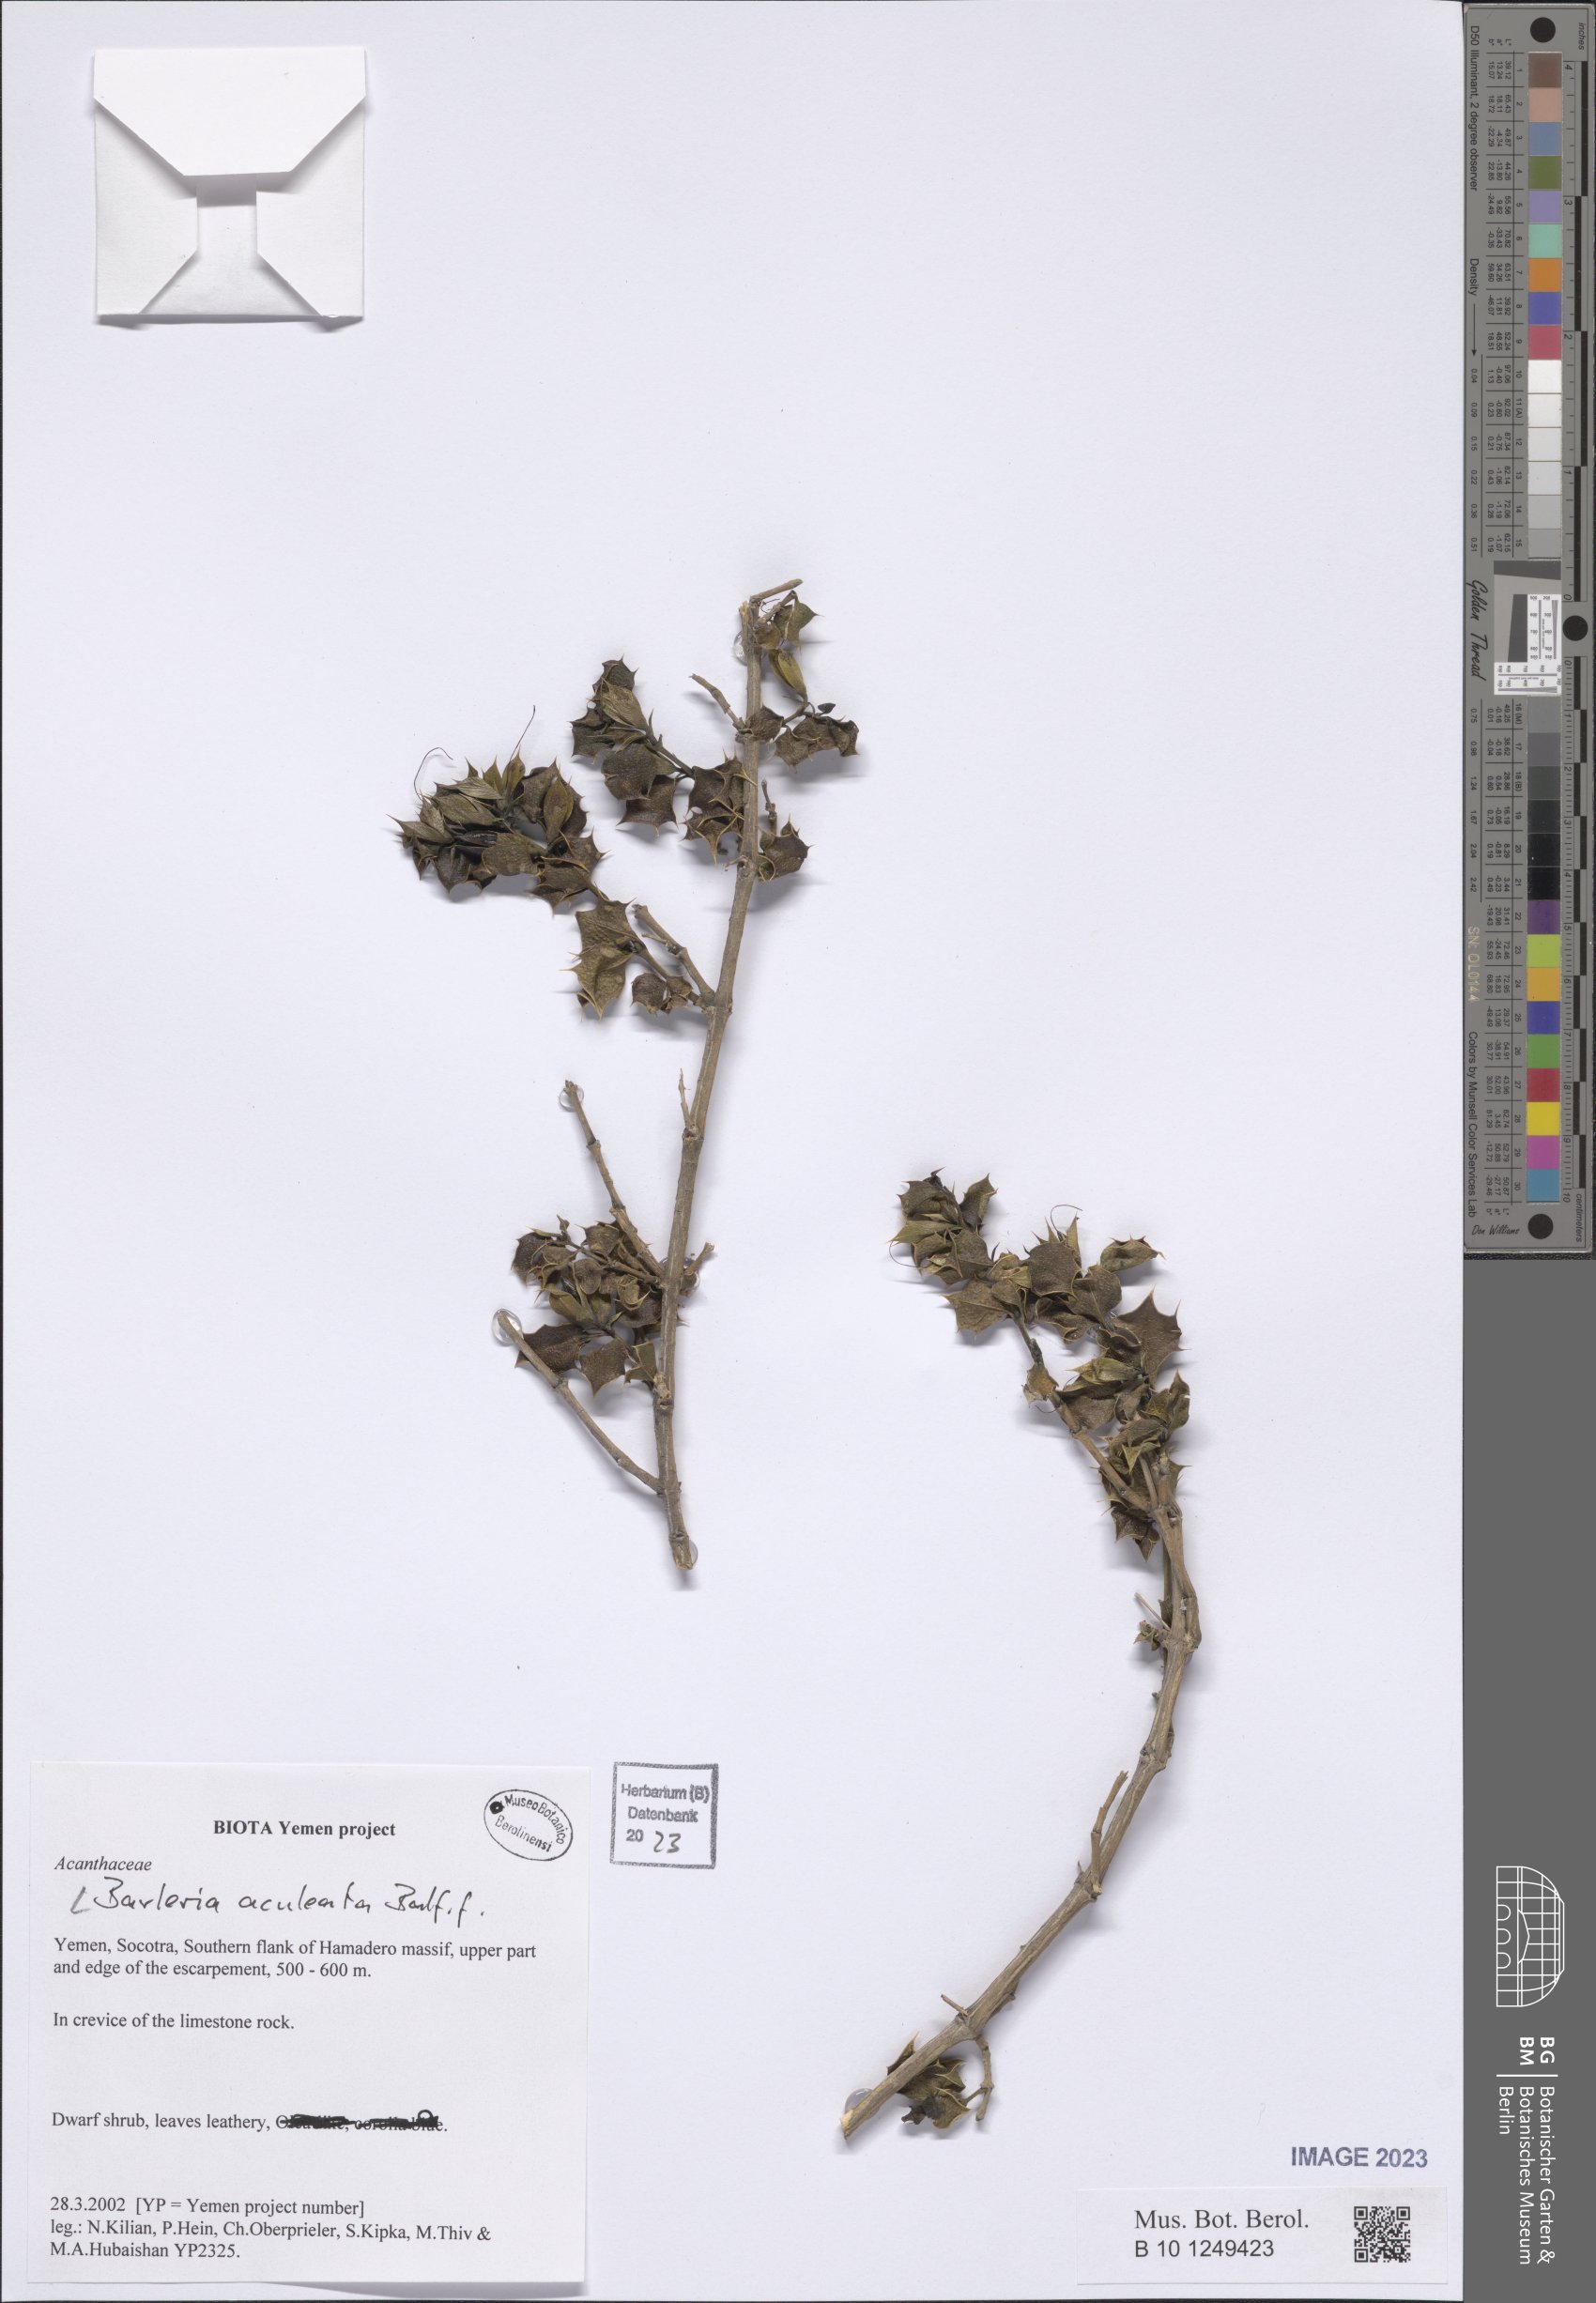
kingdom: Plantae
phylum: Tracheophyta
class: Magnoliopsida
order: Lamiales
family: Acanthaceae
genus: Barleria
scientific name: Barleria aculeata
